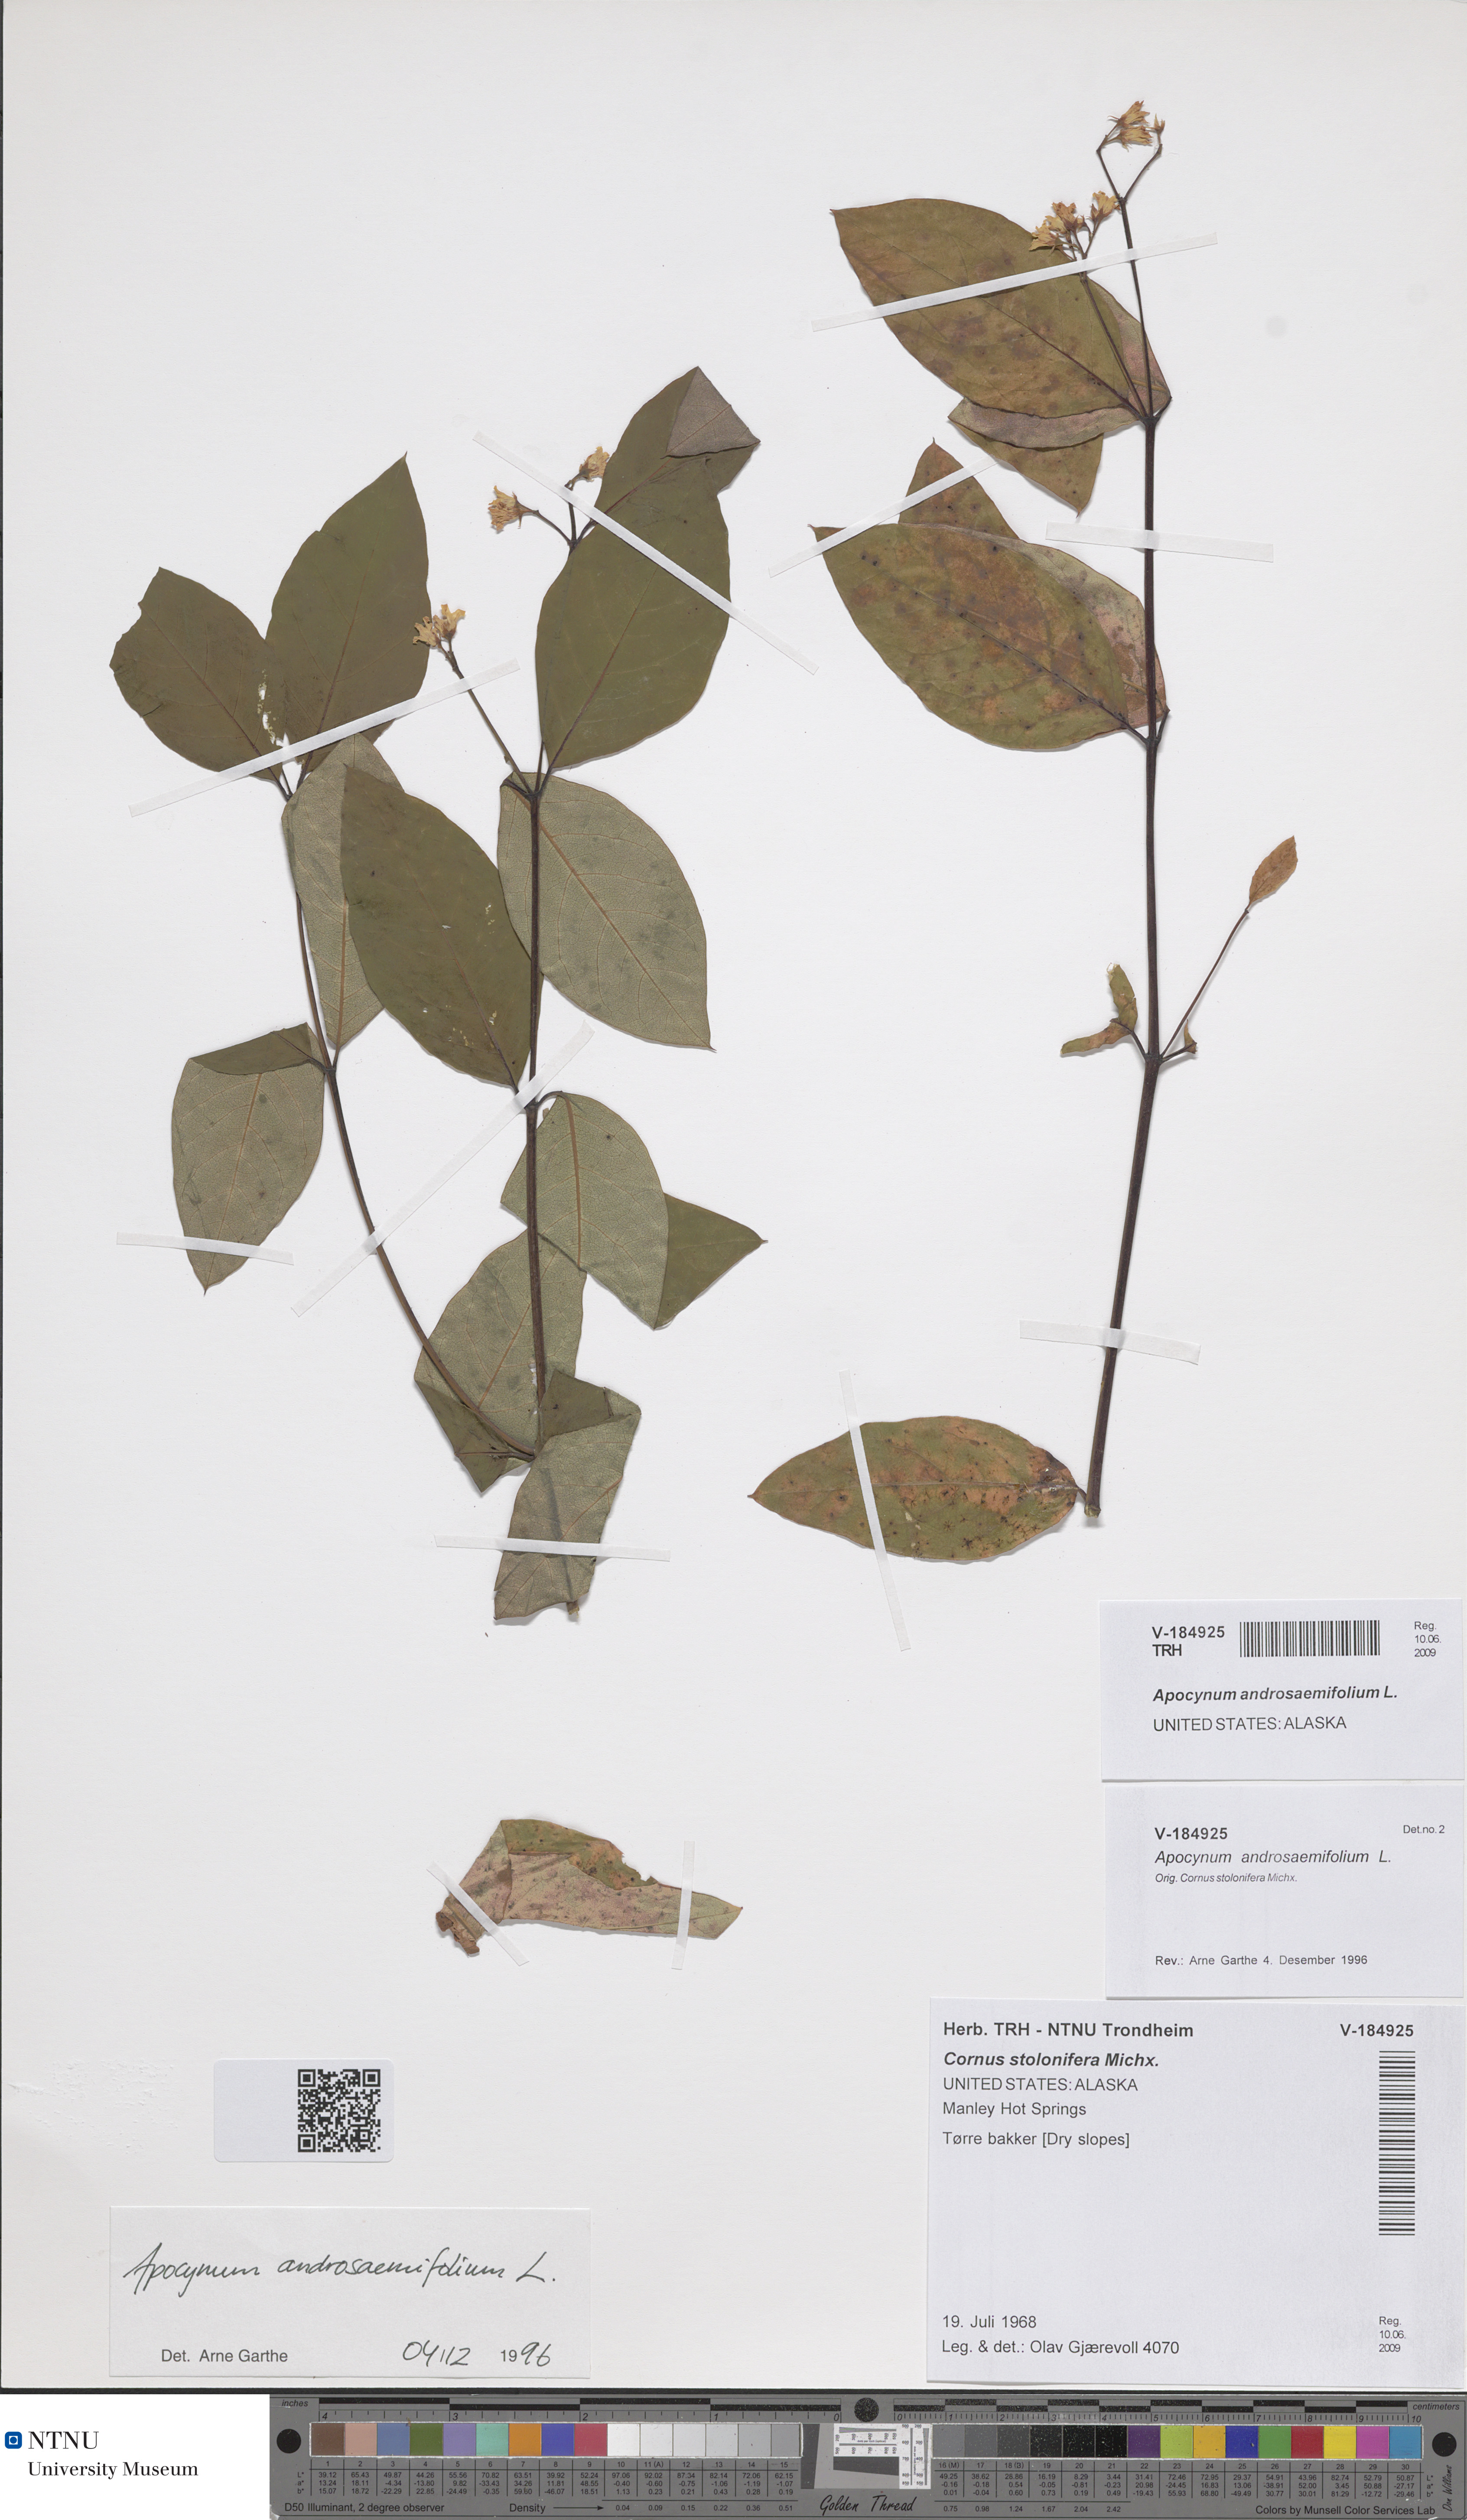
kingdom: Plantae
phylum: Tracheophyta
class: Magnoliopsida
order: Gentianales
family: Apocynaceae
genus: Apocynum
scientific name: Apocynum androsaemifolium
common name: Spreading dogbane
